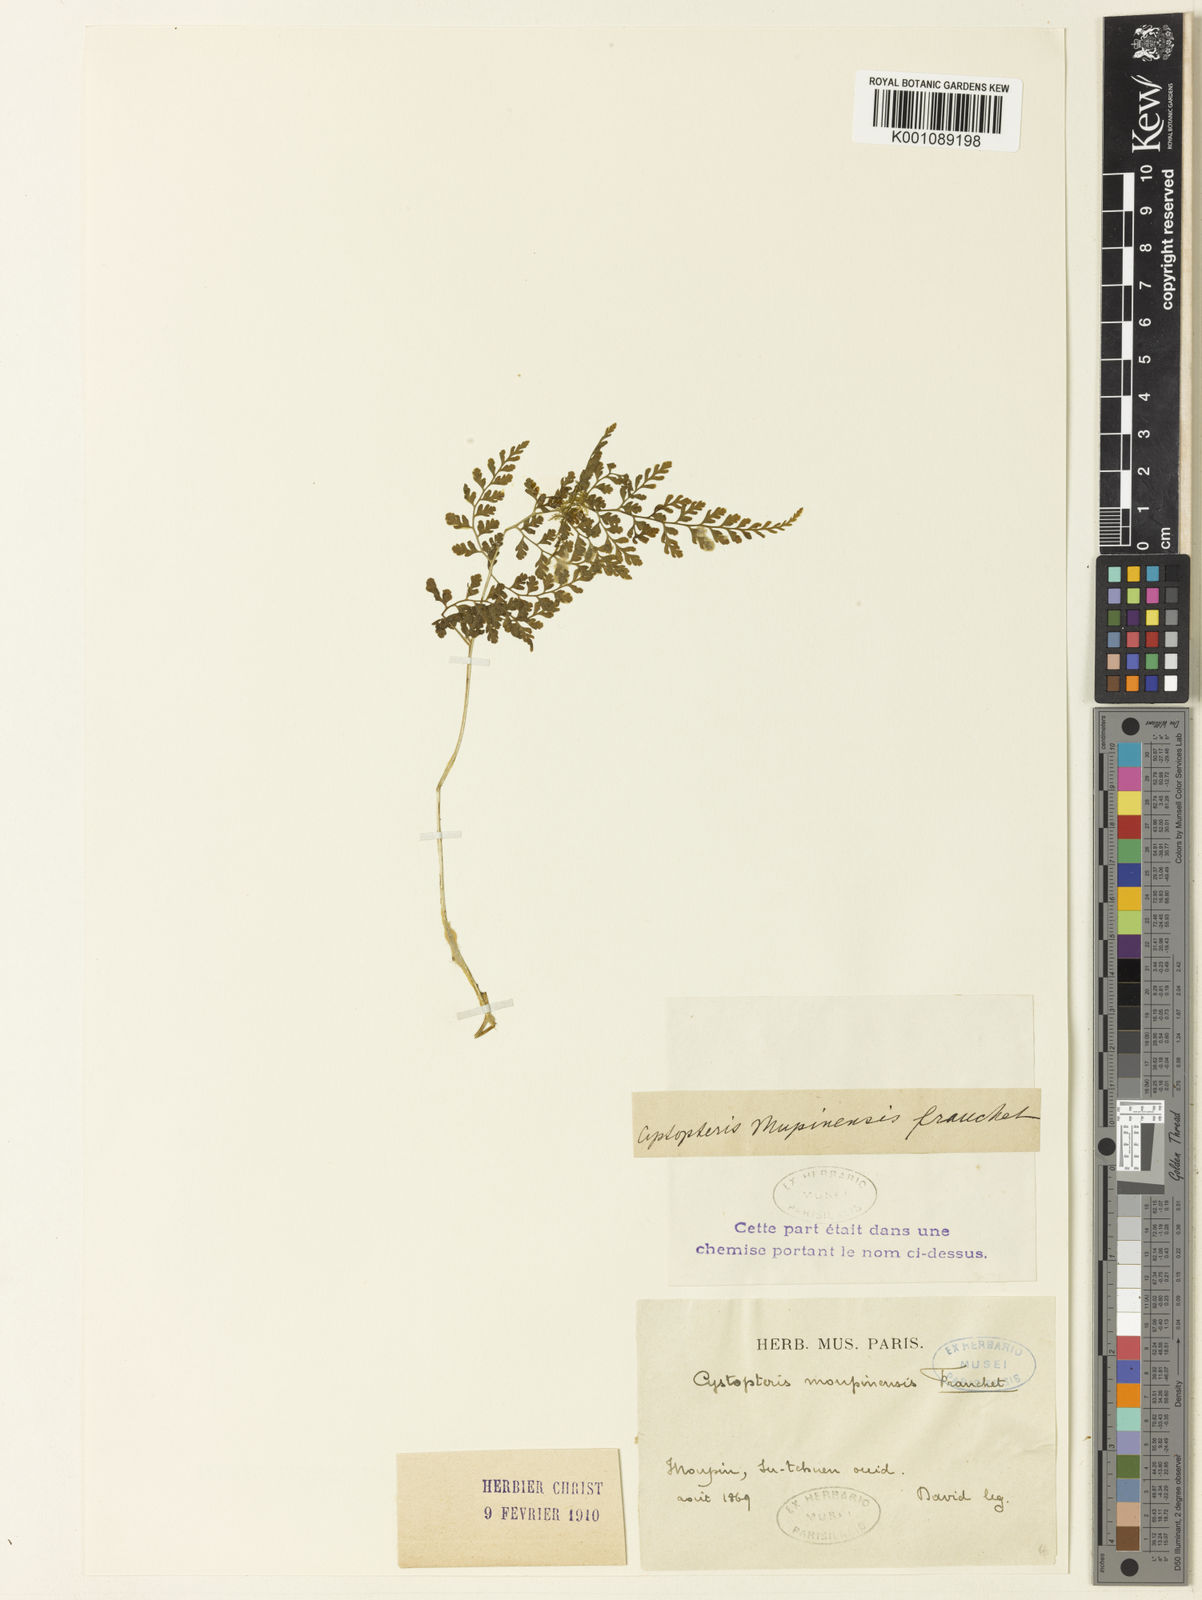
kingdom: Plantae
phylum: Tracheophyta
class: Polypodiopsida
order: Polypodiales
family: Cystopteridaceae
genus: Cystopteris
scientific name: Cystopteris moupinensis
